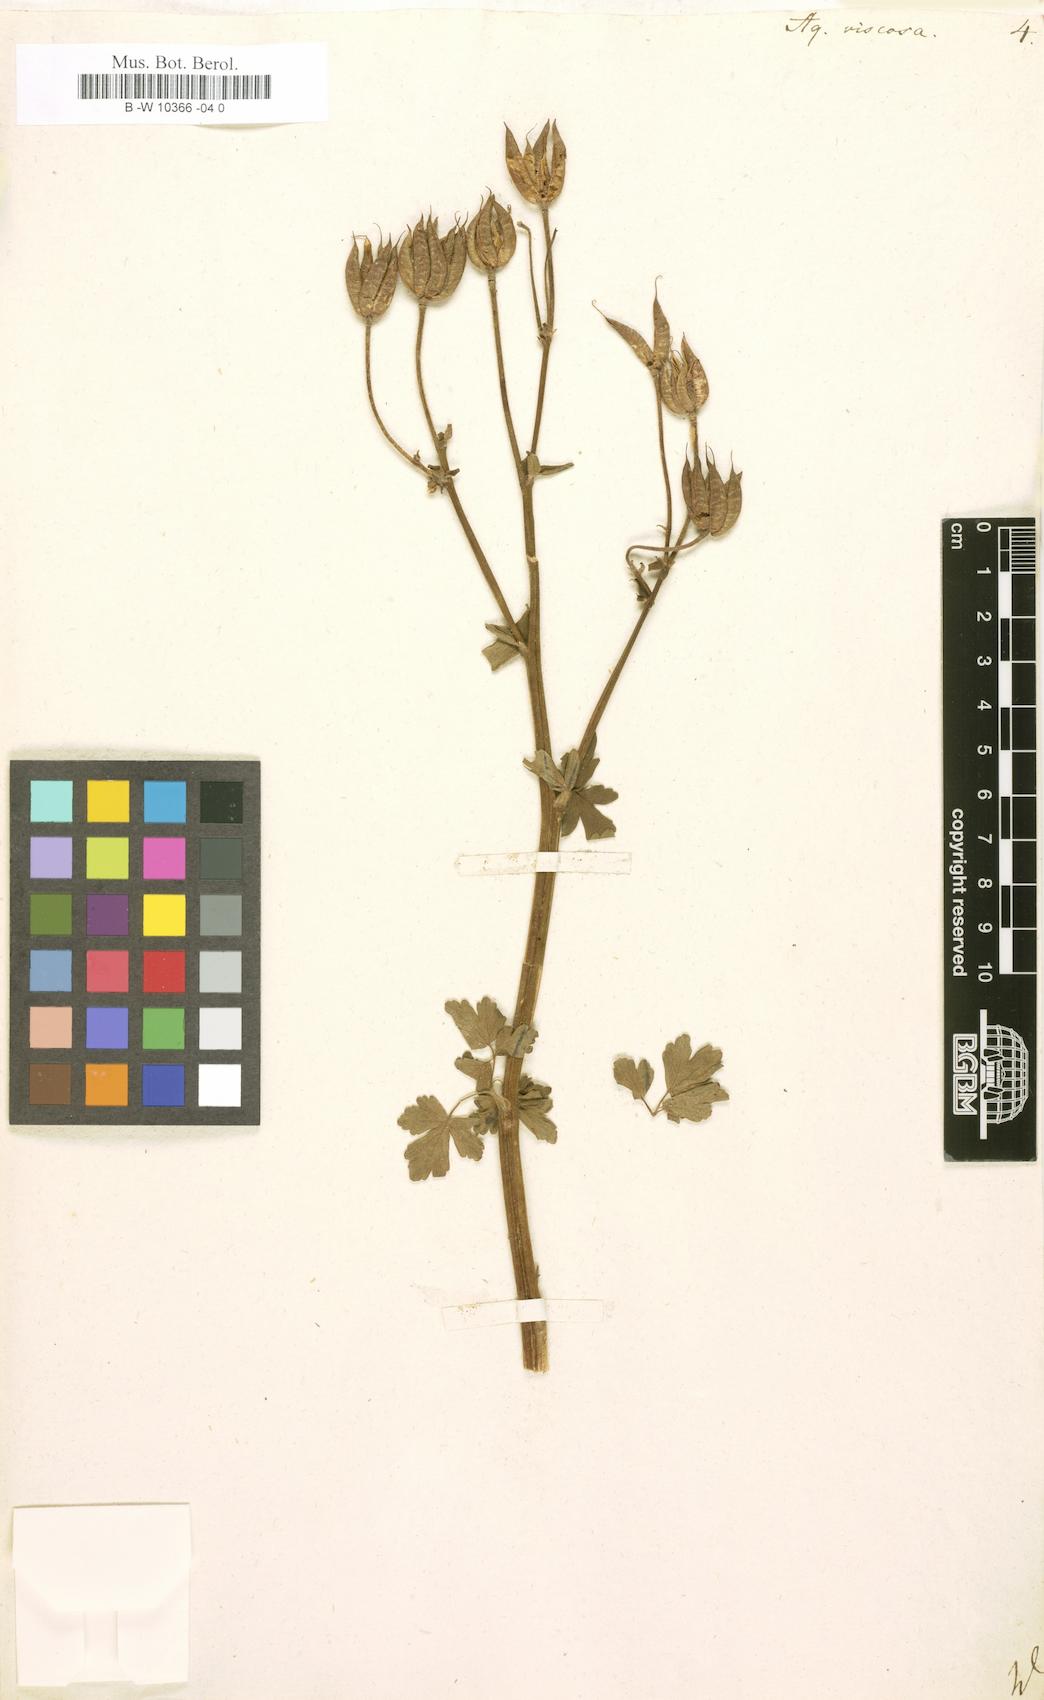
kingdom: Plantae
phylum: Tracheophyta
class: Magnoliopsida
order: Ranunculales
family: Ranunculaceae
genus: Aquilegia
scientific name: Aquilegia viscosa
